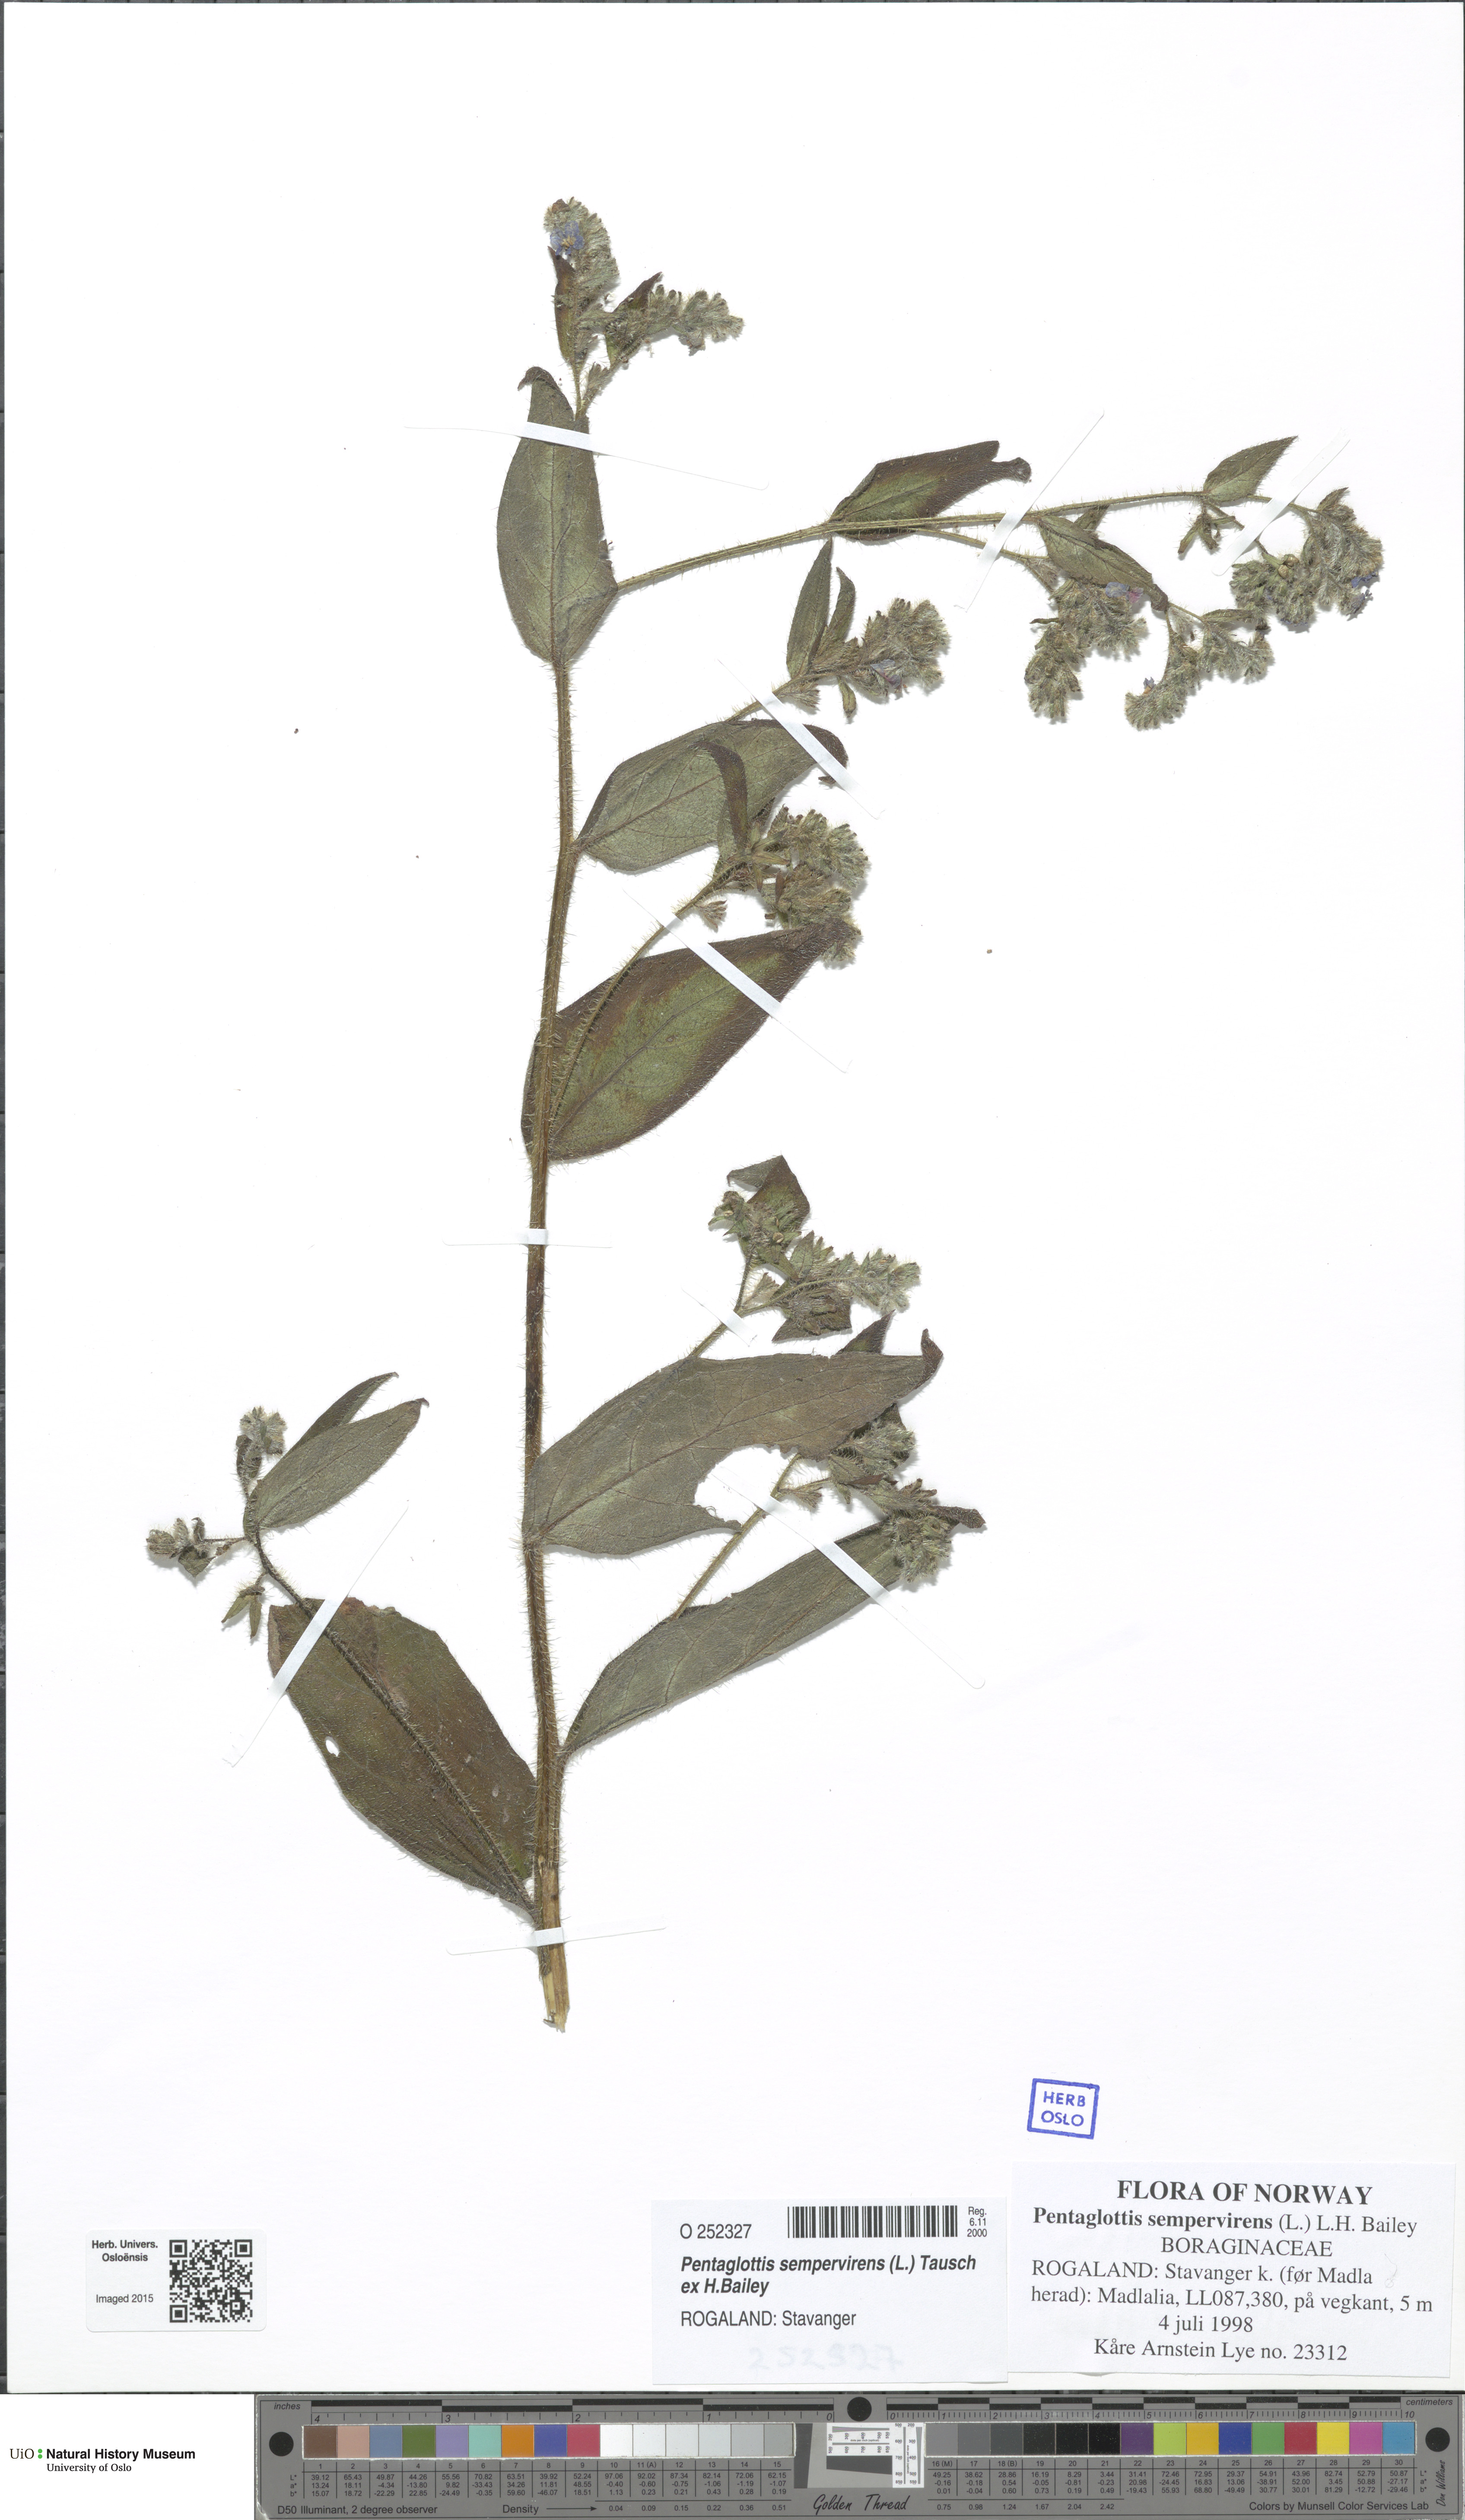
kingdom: Plantae
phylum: Tracheophyta
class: Magnoliopsida
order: Boraginales
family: Boraginaceae
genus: Pentaglottis
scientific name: Pentaglottis sempervirens
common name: Green alkanet
